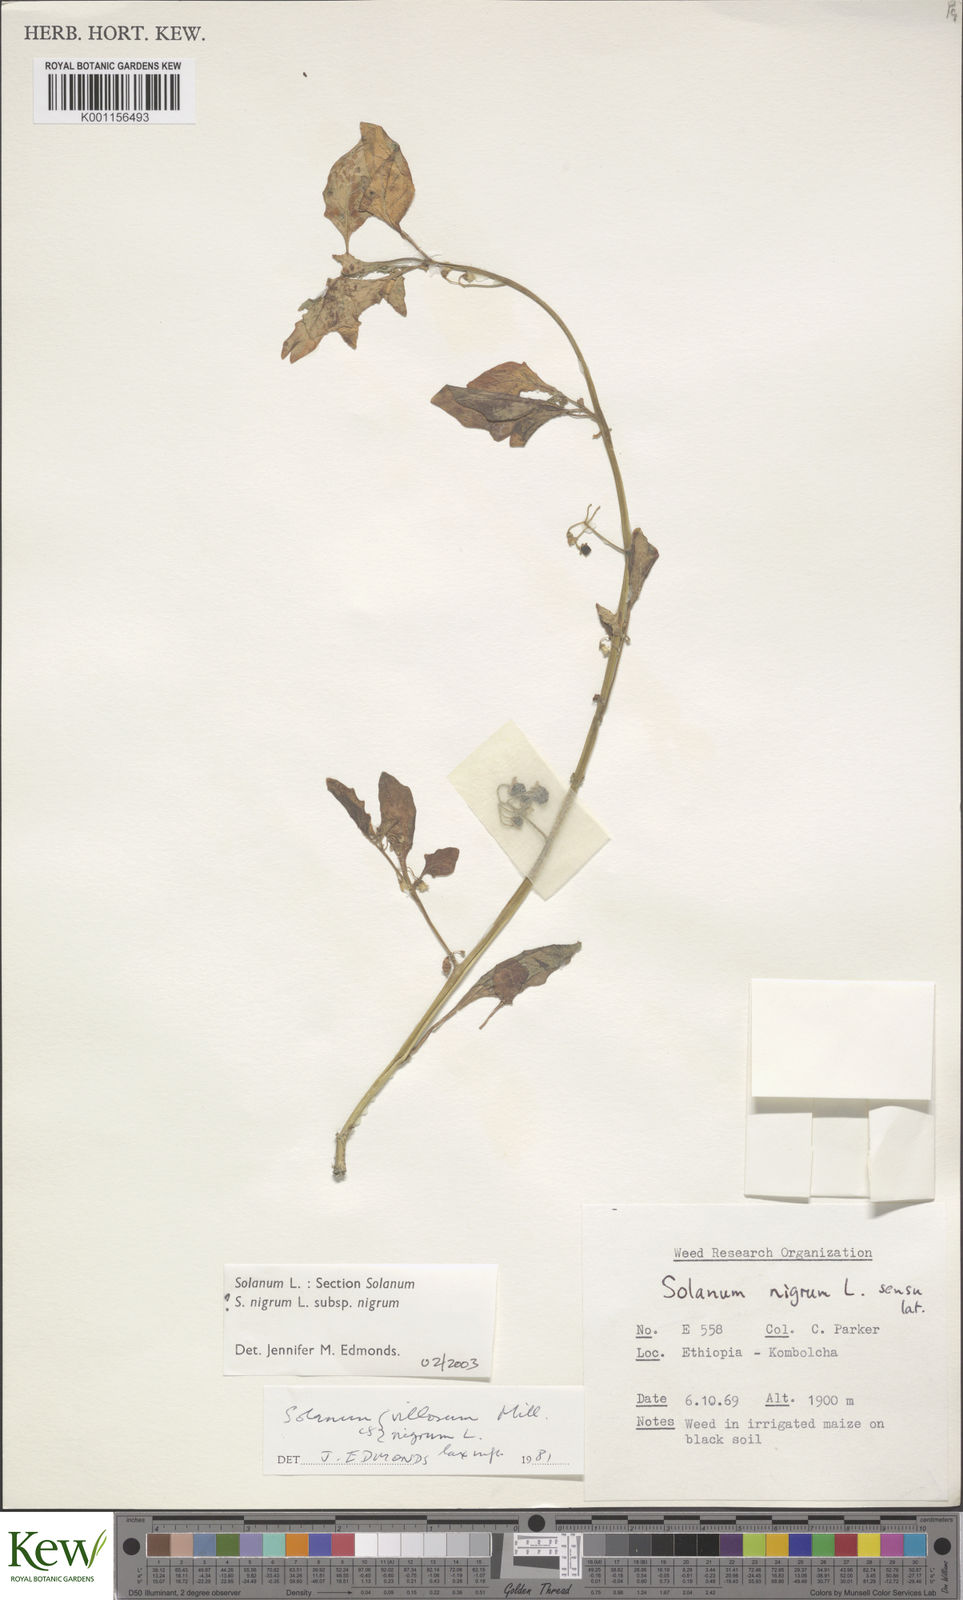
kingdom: Plantae
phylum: Tracheophyta
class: Magnoliopsida
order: Solanales
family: Solanaceae
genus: Solanum
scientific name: Solanum villosum
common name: Red nightshade
